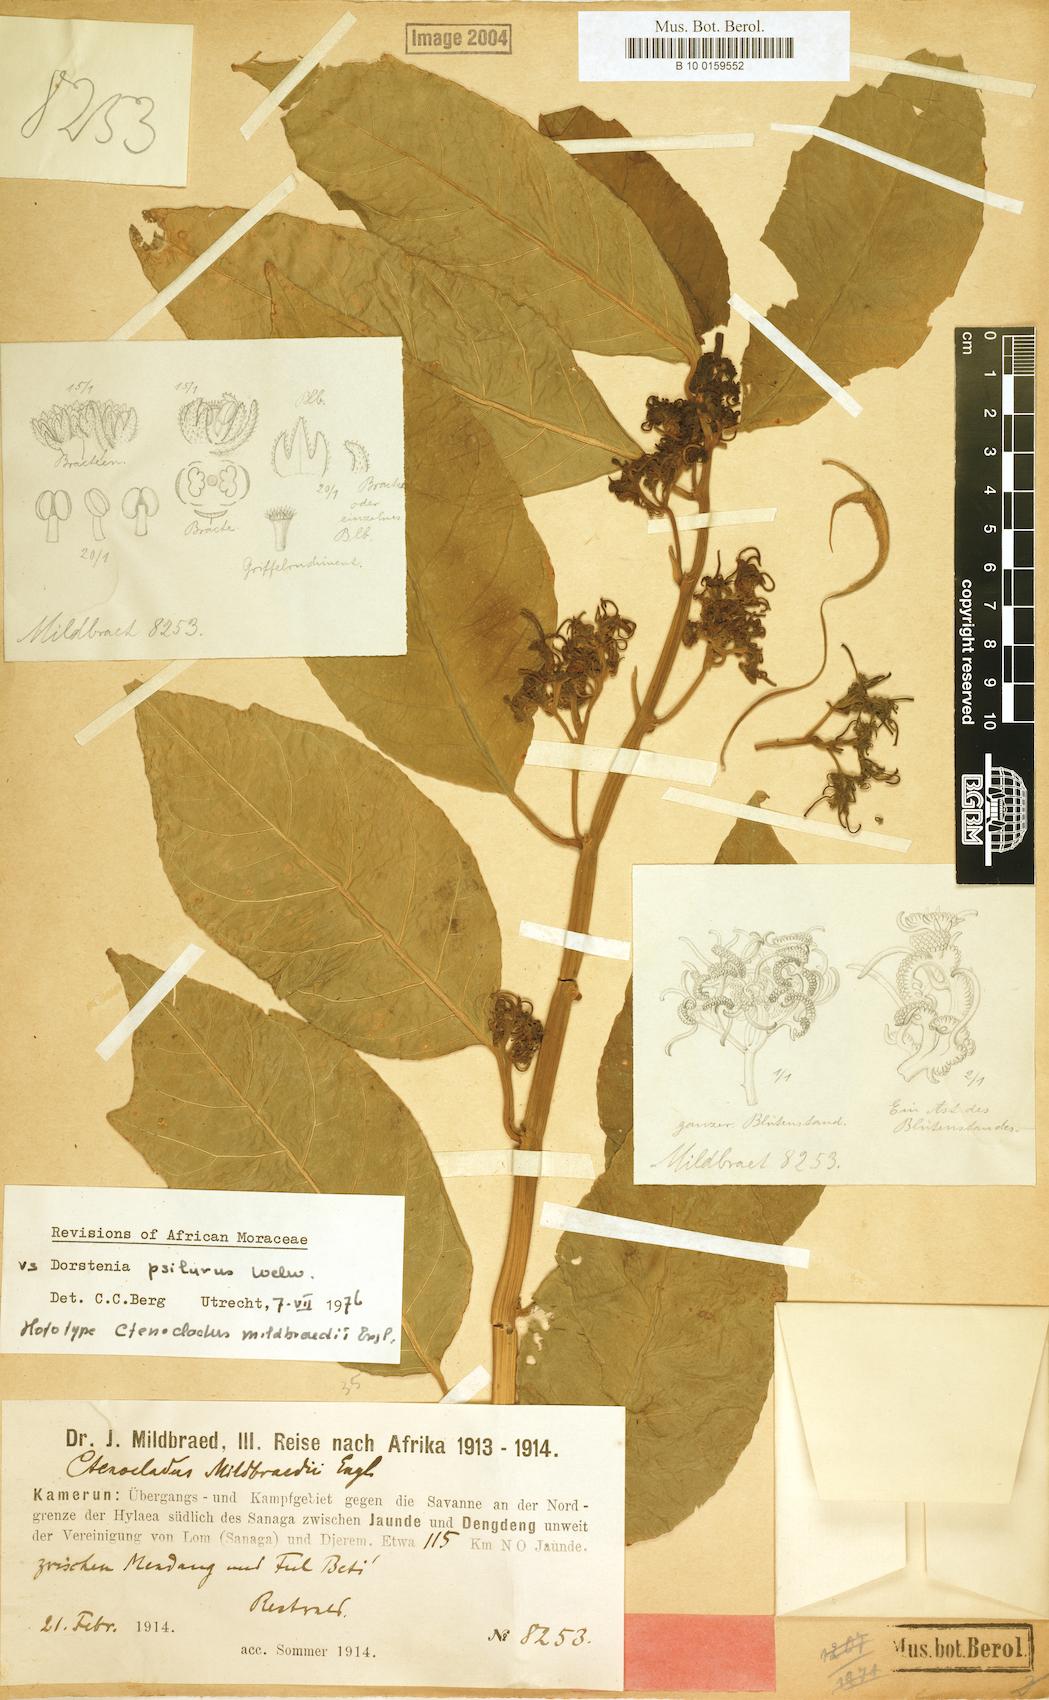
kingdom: Plantae
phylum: Tracheophyta
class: Magnoliopsida
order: Rosales
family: Moraceae
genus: Dorstenia
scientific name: Dorstenia psilurus
